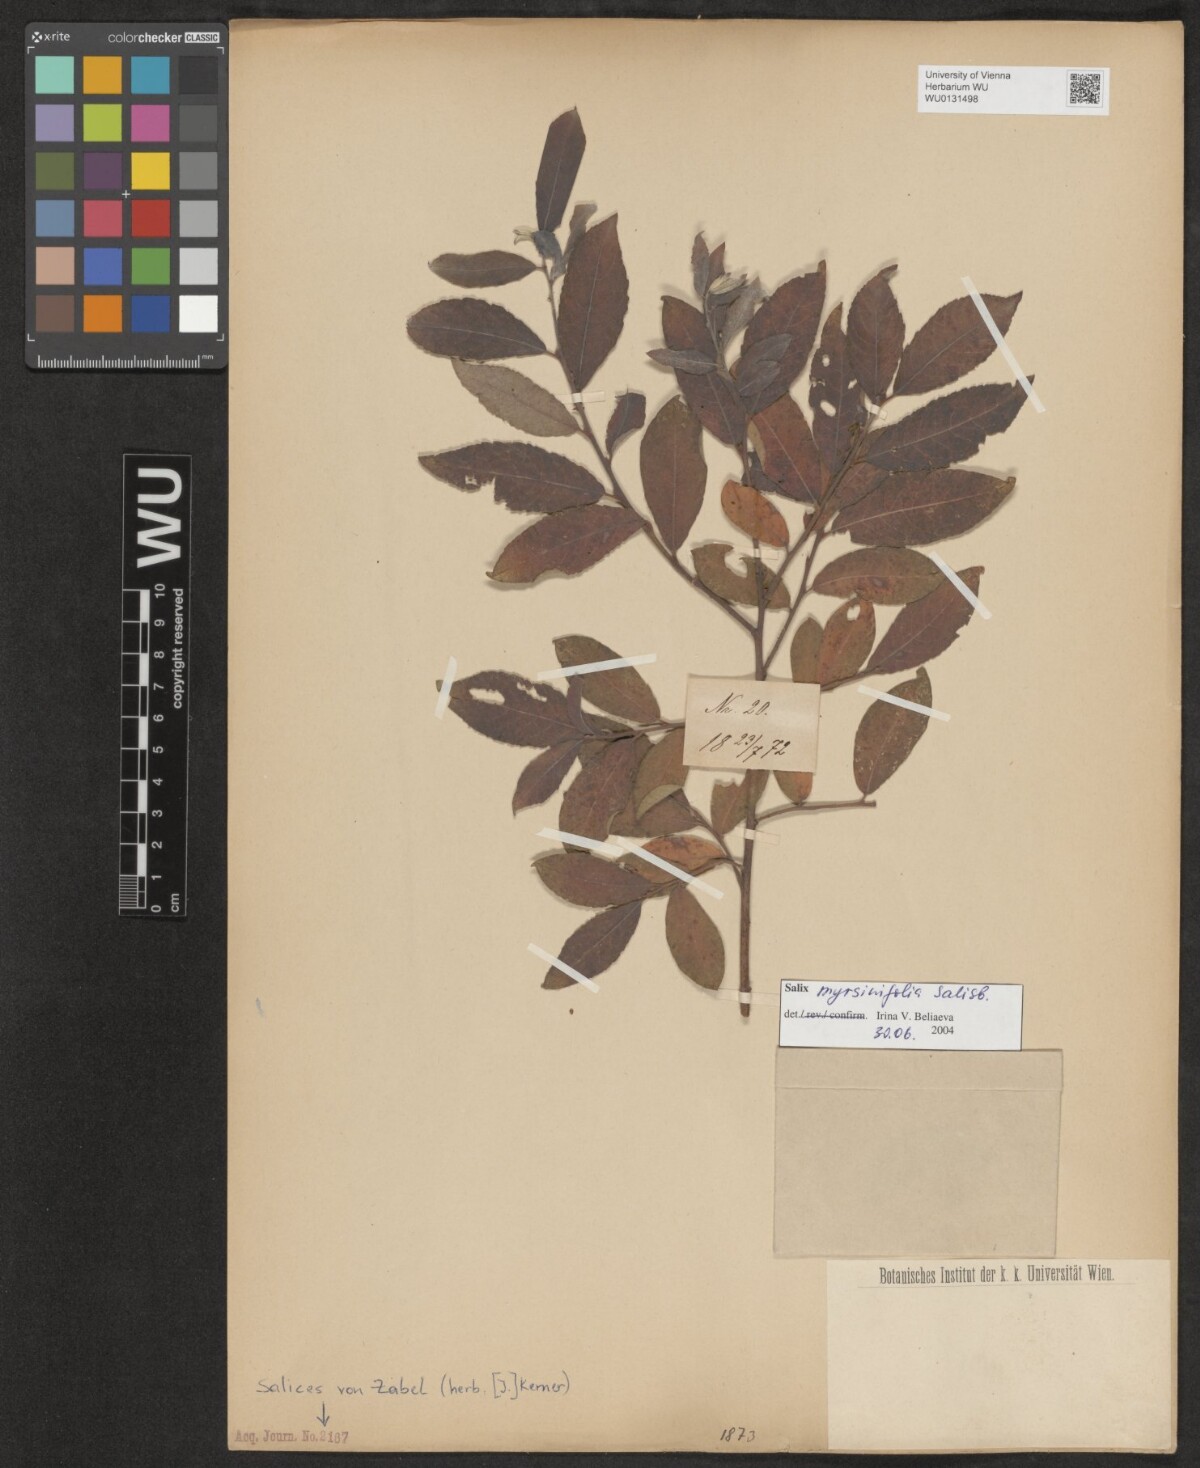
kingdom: Plantae
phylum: Tracheophyta
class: Magnoliopsida
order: Malpighiales
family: Salicaceae
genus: Salix
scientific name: Salix myrsinifolia
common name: Dark-leaved willow
